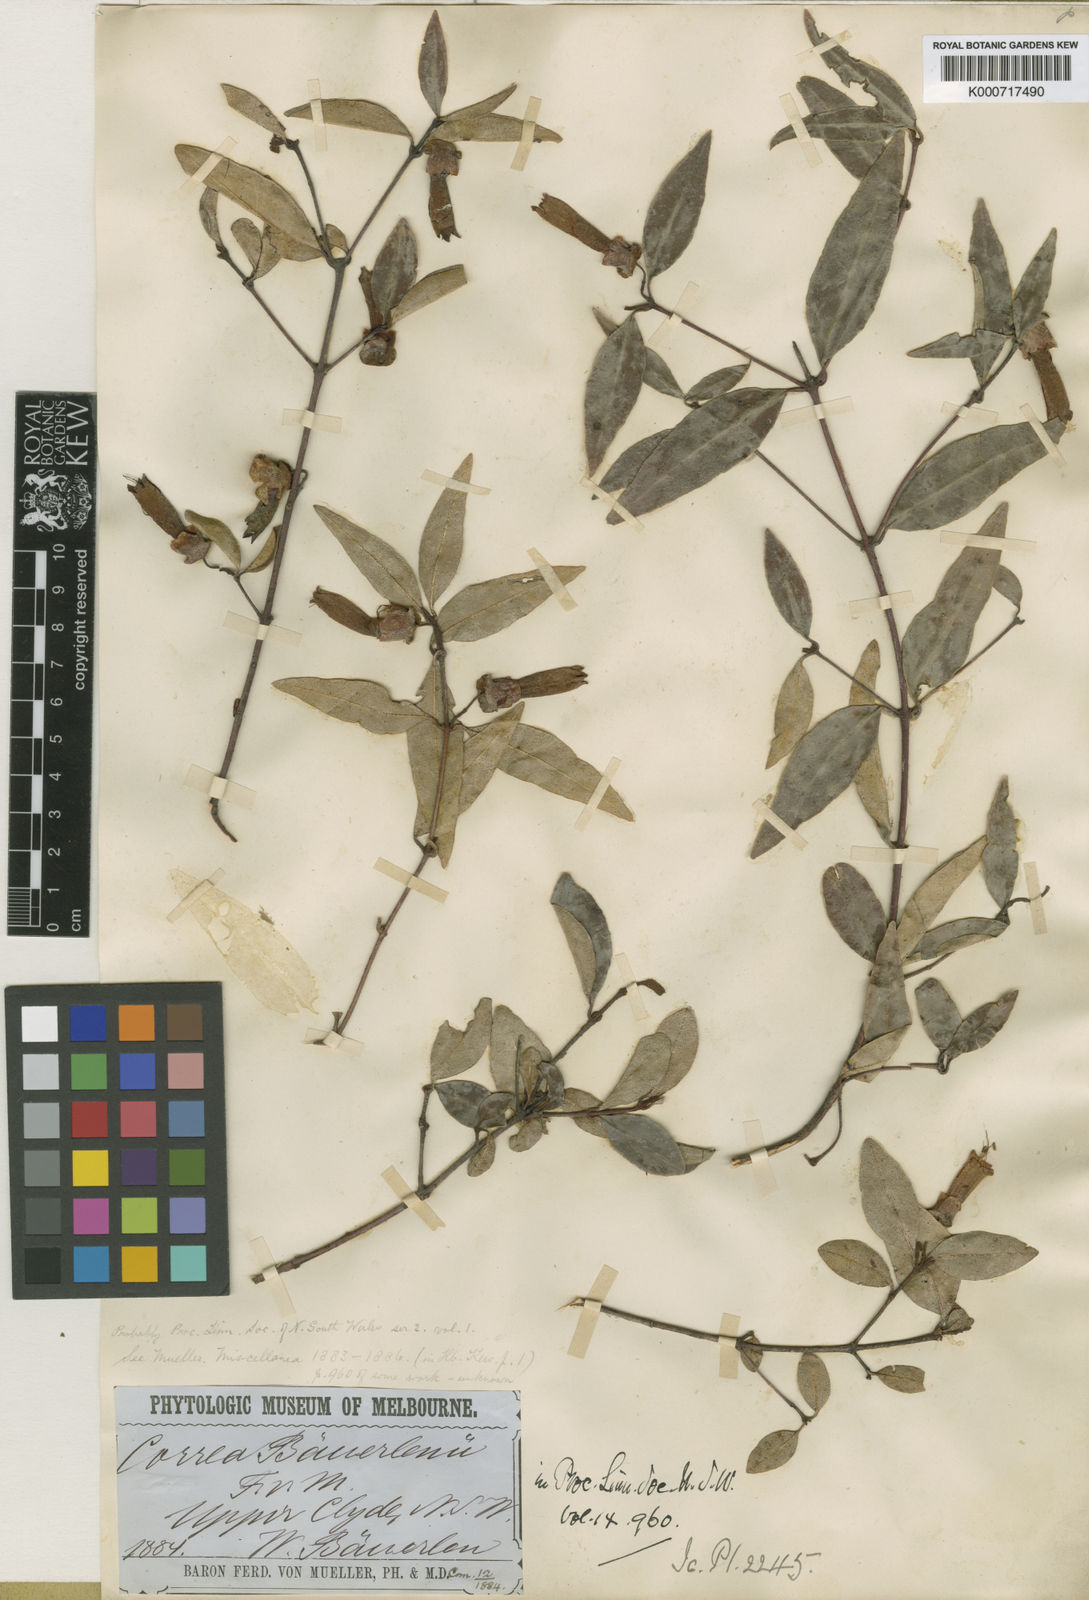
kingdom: Plantae
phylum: Tracheophyta
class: Magnoliopsida
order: Sapindales
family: Rutaceae
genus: Correa
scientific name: Correa bauerlenii
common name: Chef's-hat correa
